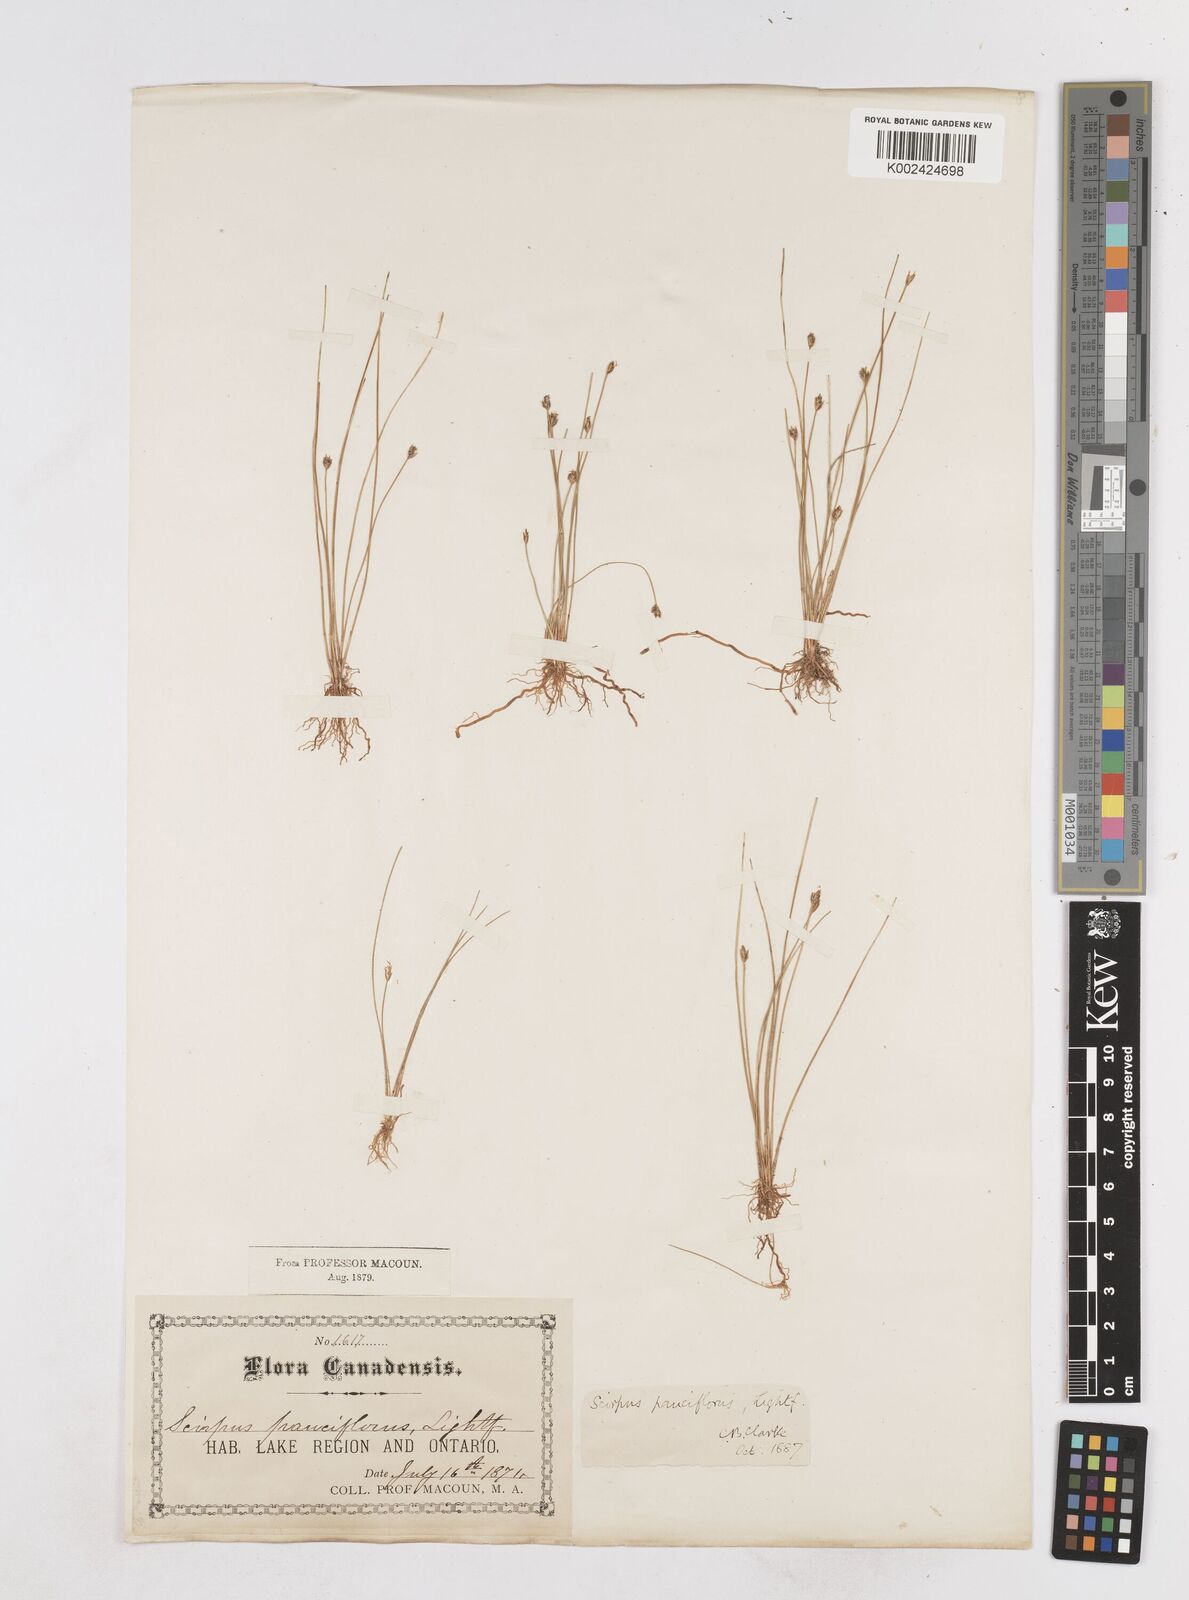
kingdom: Plantae
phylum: Tracheophyta
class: Liliopsida
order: Poales
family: Cyperaceae
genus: Eleocharis
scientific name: Eleocharis quinqueflora
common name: Few-flowered spike-rush
